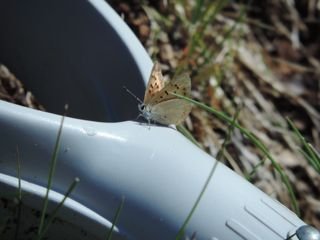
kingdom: Animalia
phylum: Arthropoda
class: Insecta
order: Lepidoptera
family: Lycaenidae
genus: Epidemia
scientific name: Epidemia dorcas
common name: Dorcas Copper
